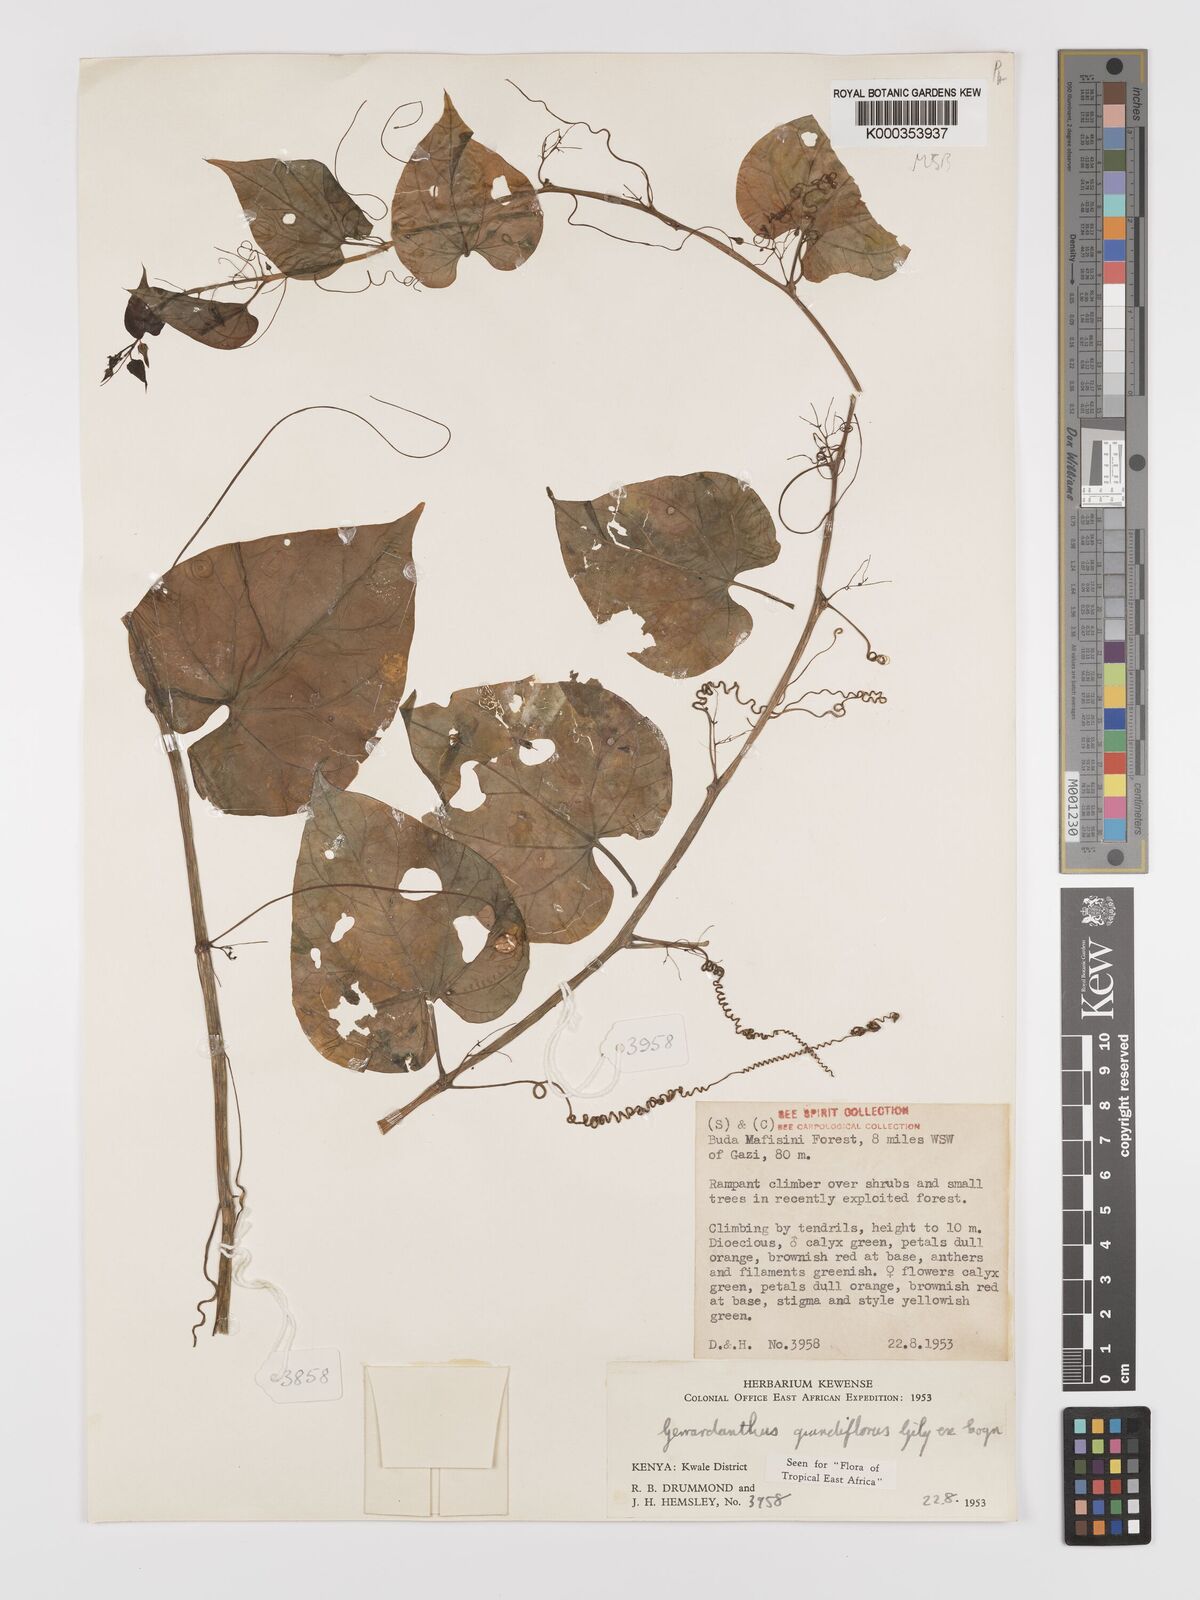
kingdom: Plantae
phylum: Tracheophyta
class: Magnoliopsida
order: Cucurbitales
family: Cucurbitaceae
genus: Gerrardanthus
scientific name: Gerrardanthus
